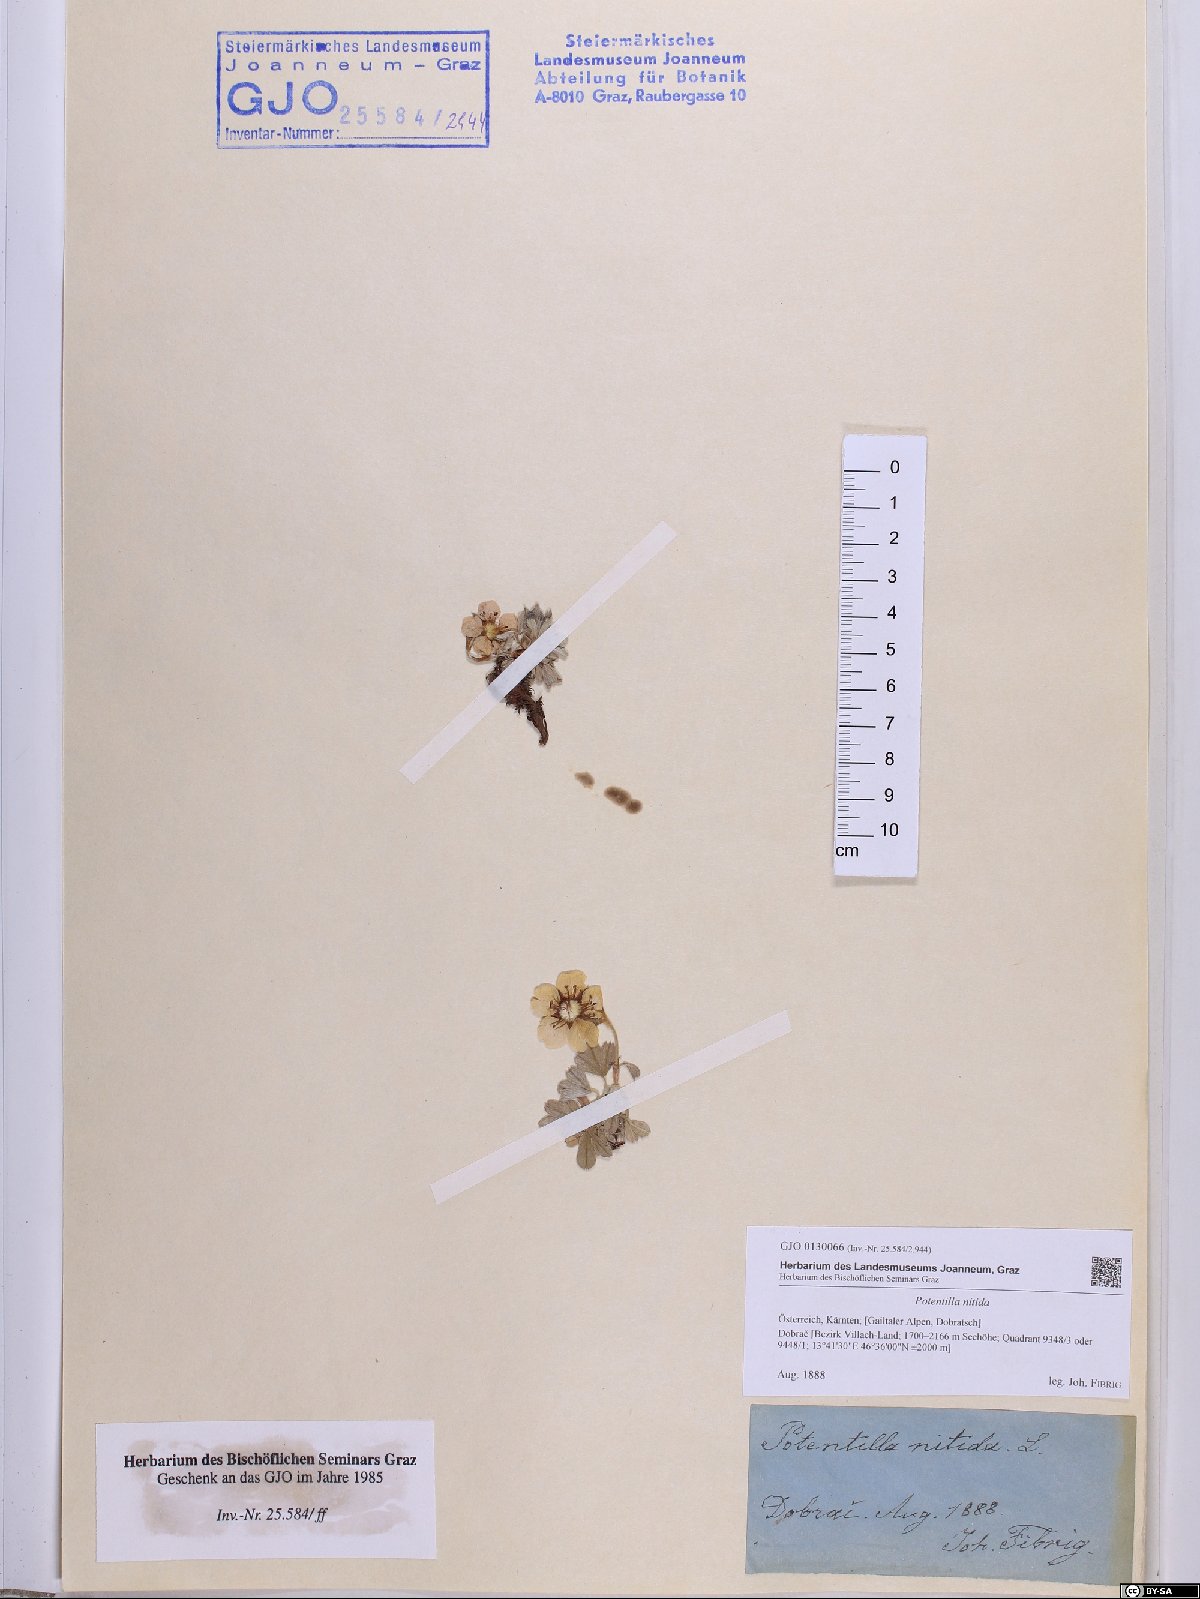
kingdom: Plantae
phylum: Tracheophyta
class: Magnoliopsida
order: Rosales
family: Rosaceae
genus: Potentilla
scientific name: Potentilla nitida
